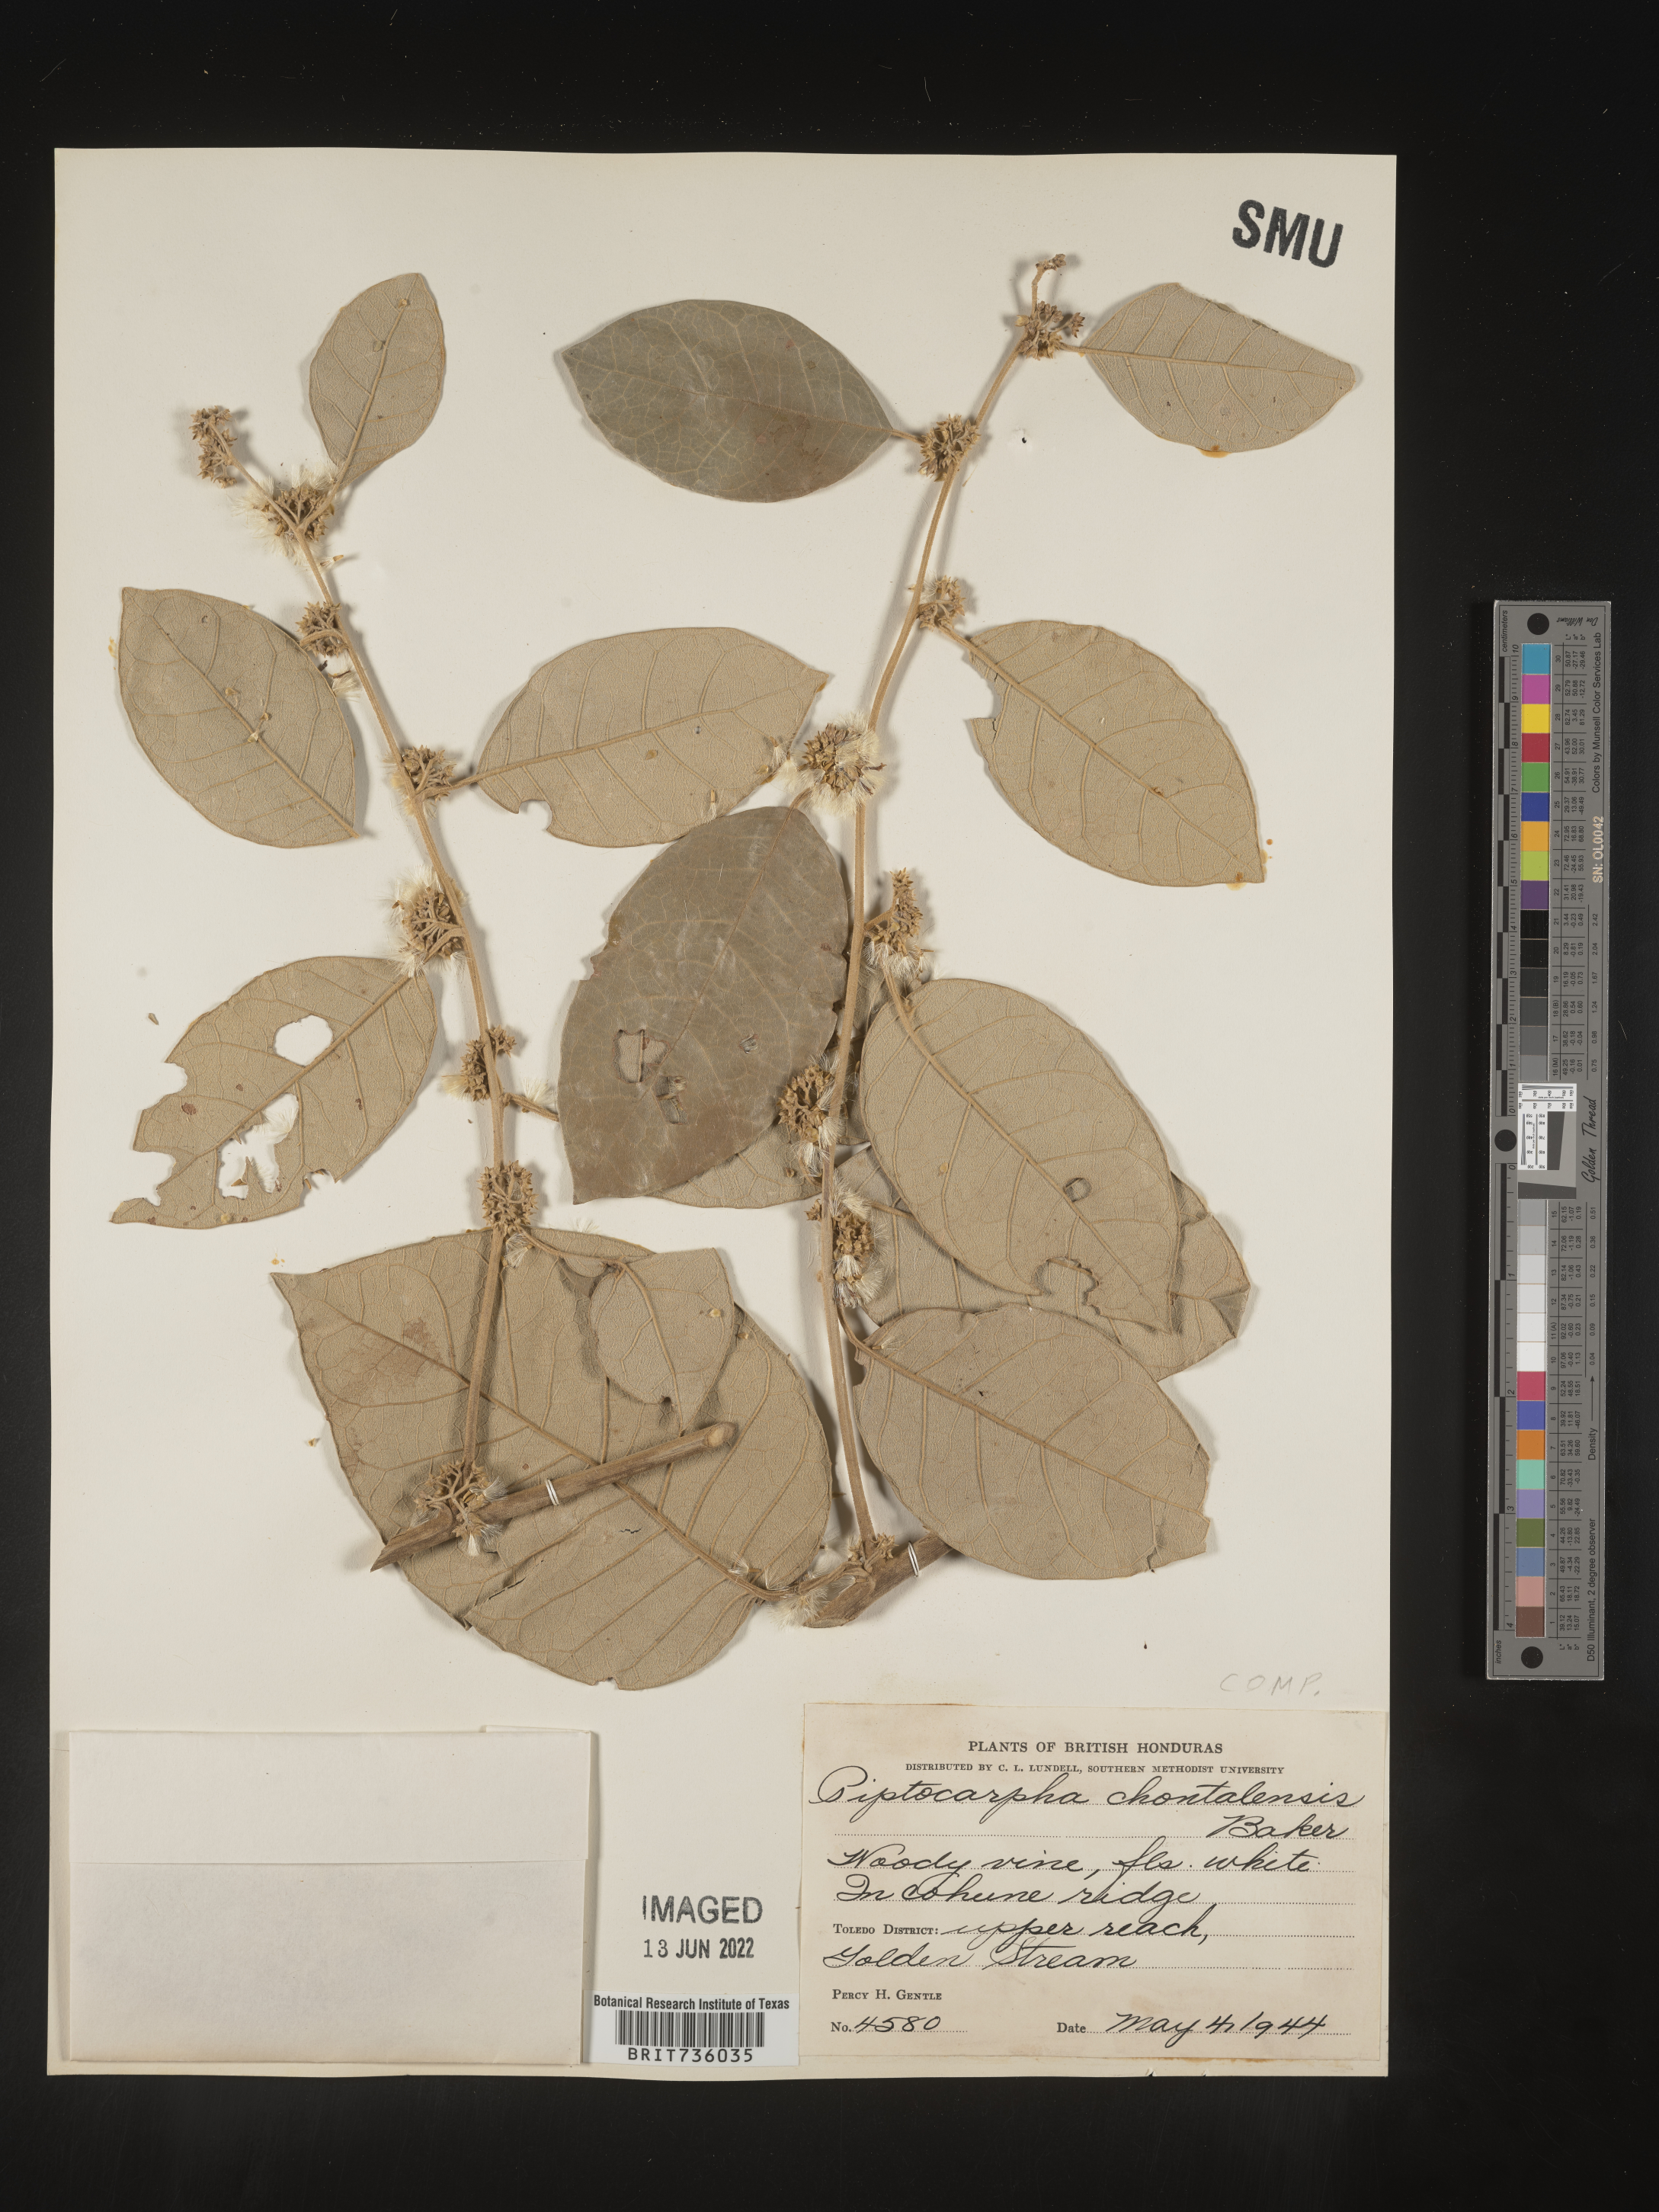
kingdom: Plantae
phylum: Tracheophyta
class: Magnoliopsida
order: Asterales
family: Asteraceae
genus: Piptocarpha
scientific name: Piptocarpha
